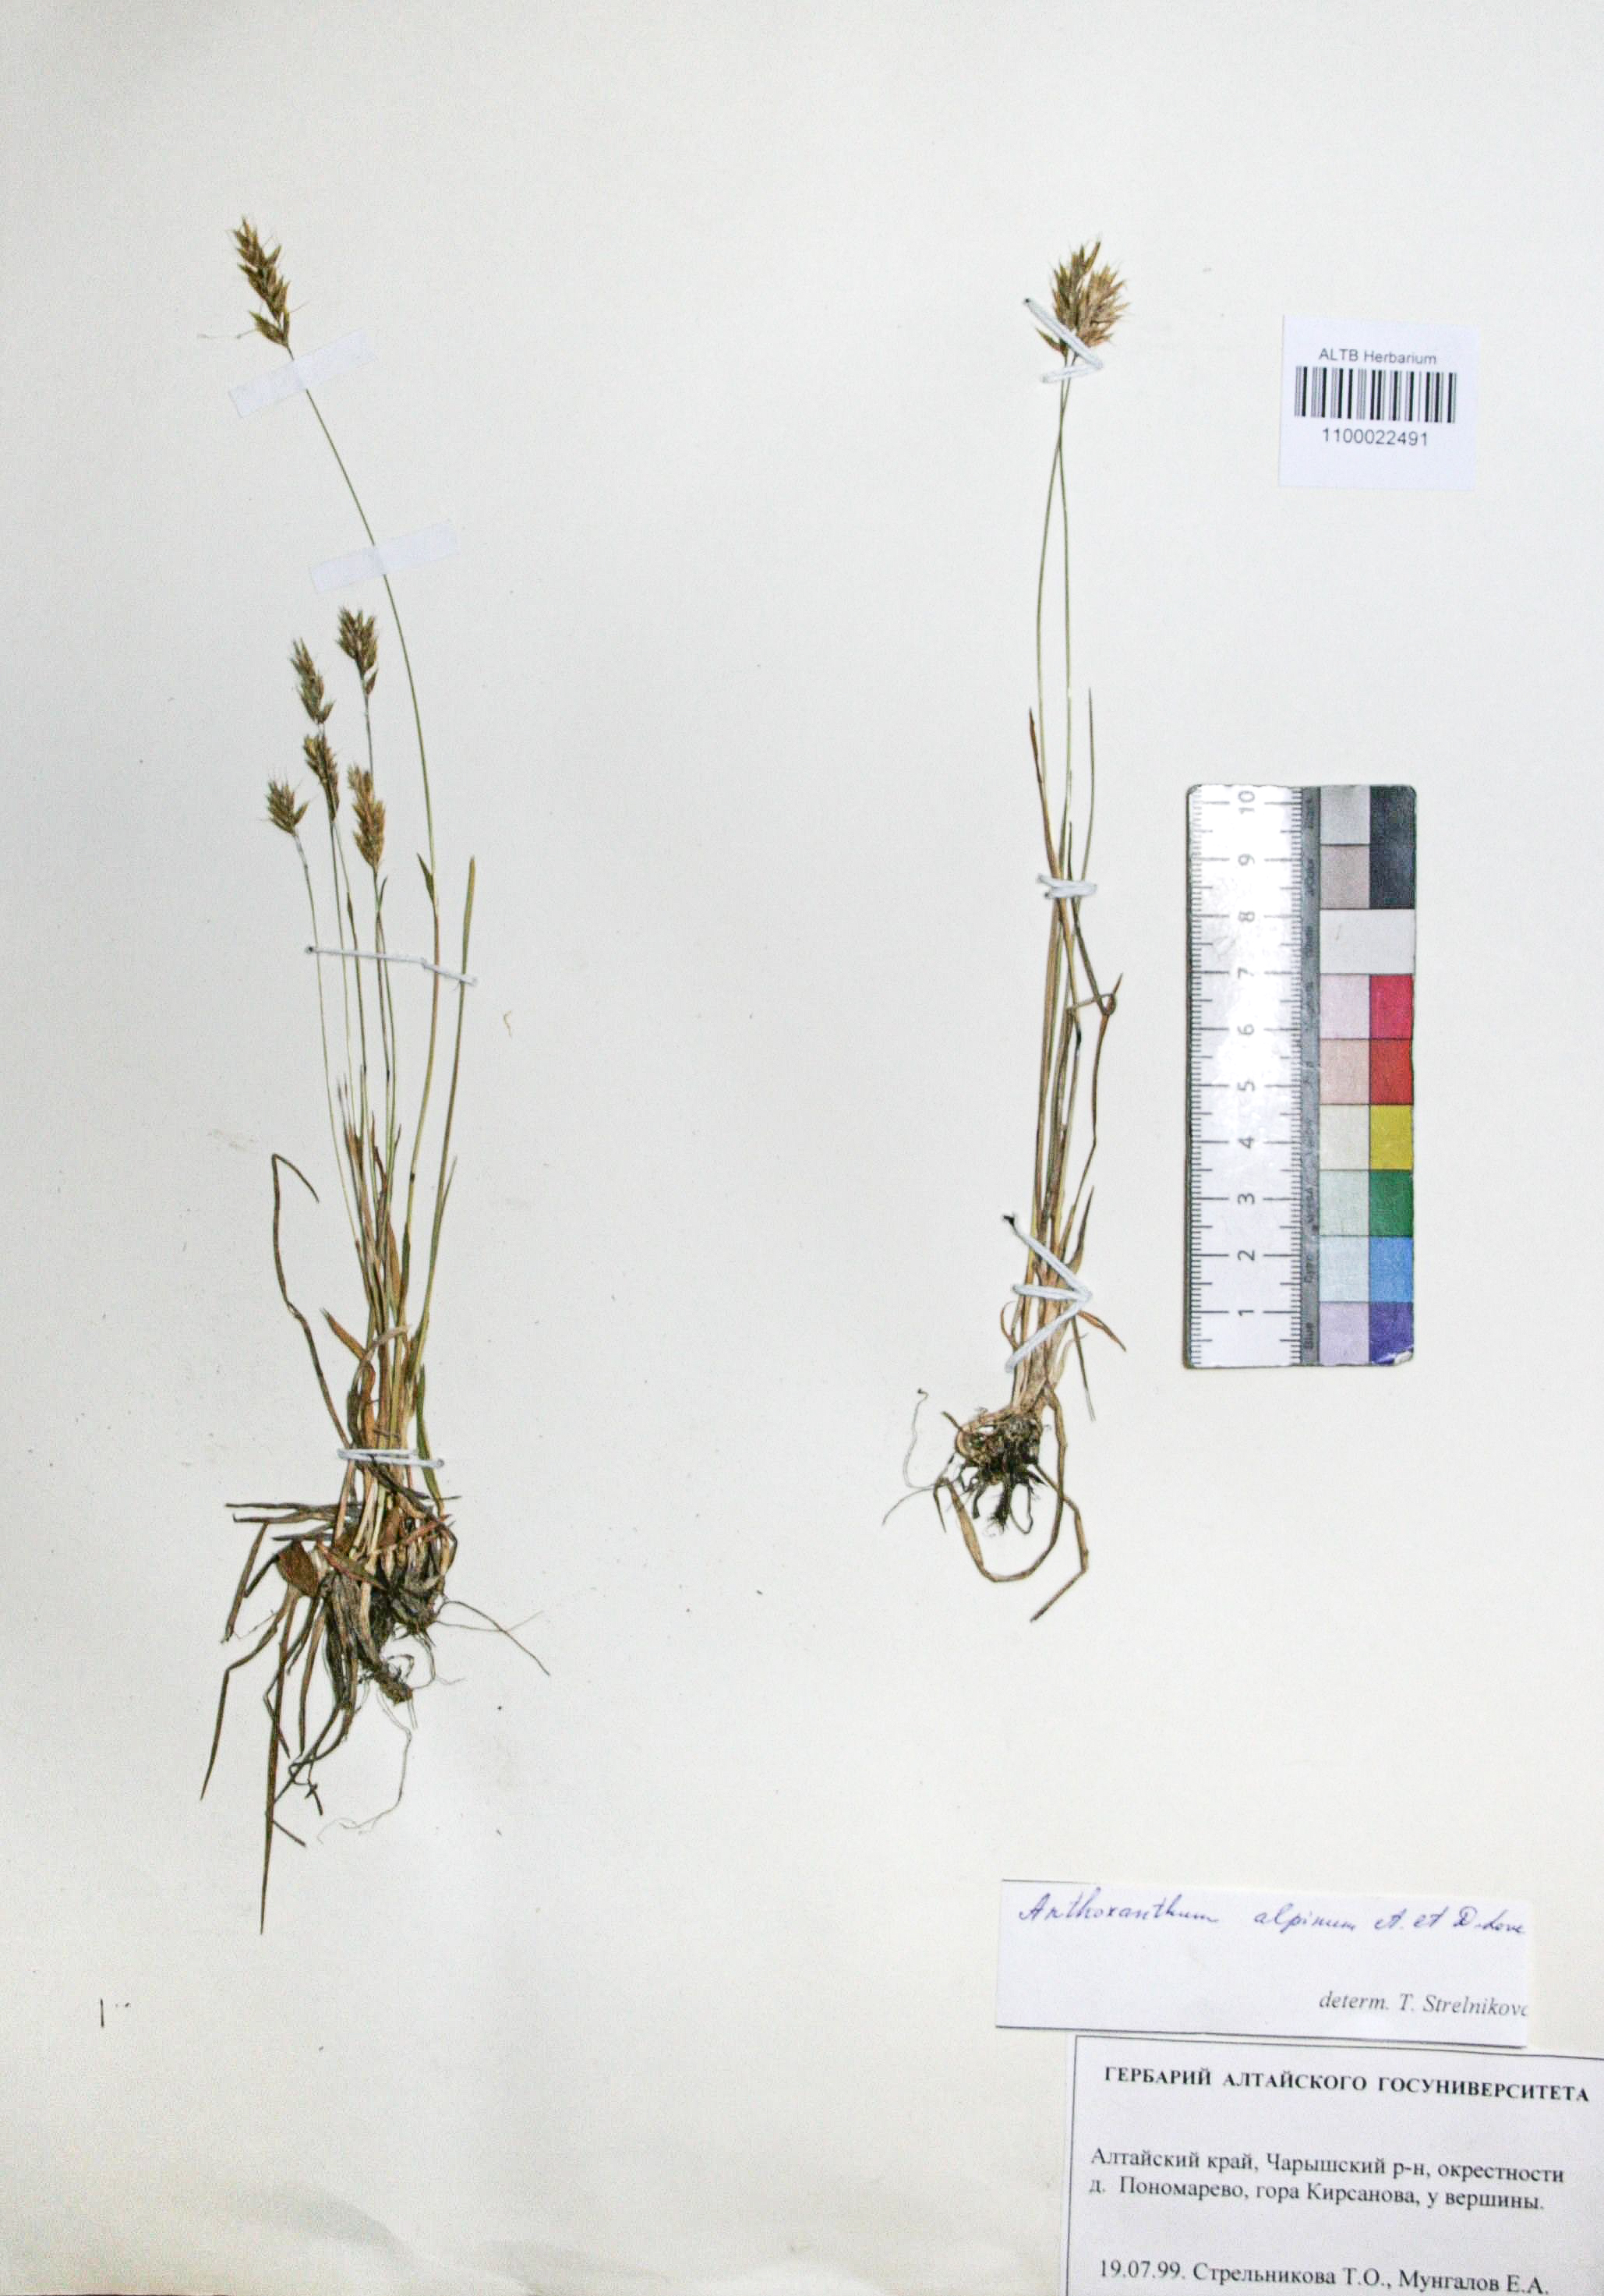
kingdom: Plantae
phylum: Tracheophyta
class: Liliopsida
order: Poales
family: Poaceae
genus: Anthoxanthum
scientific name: Anthoxanthum nipponicum
